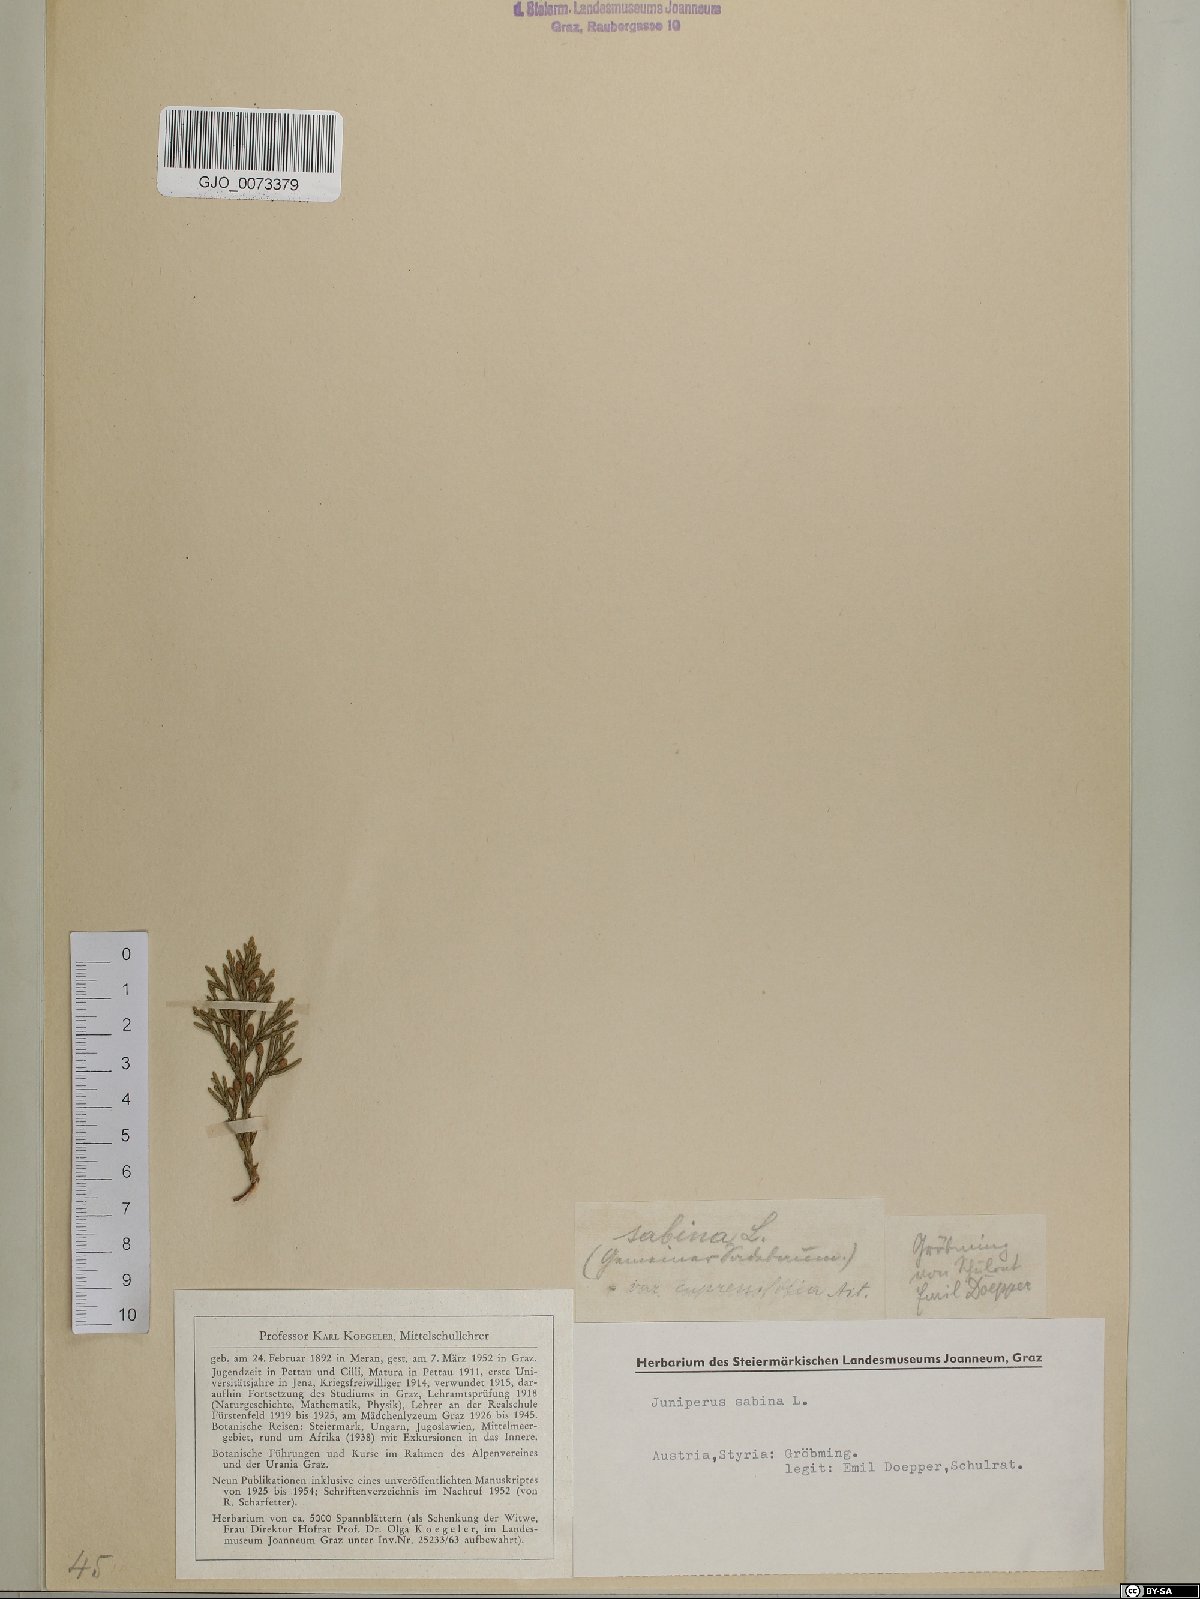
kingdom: Plantae
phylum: Tracheophyta
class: Pinopsida
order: Pinales
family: Cupressaceae
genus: Juniperus
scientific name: Juniperus sabina
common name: Savin
